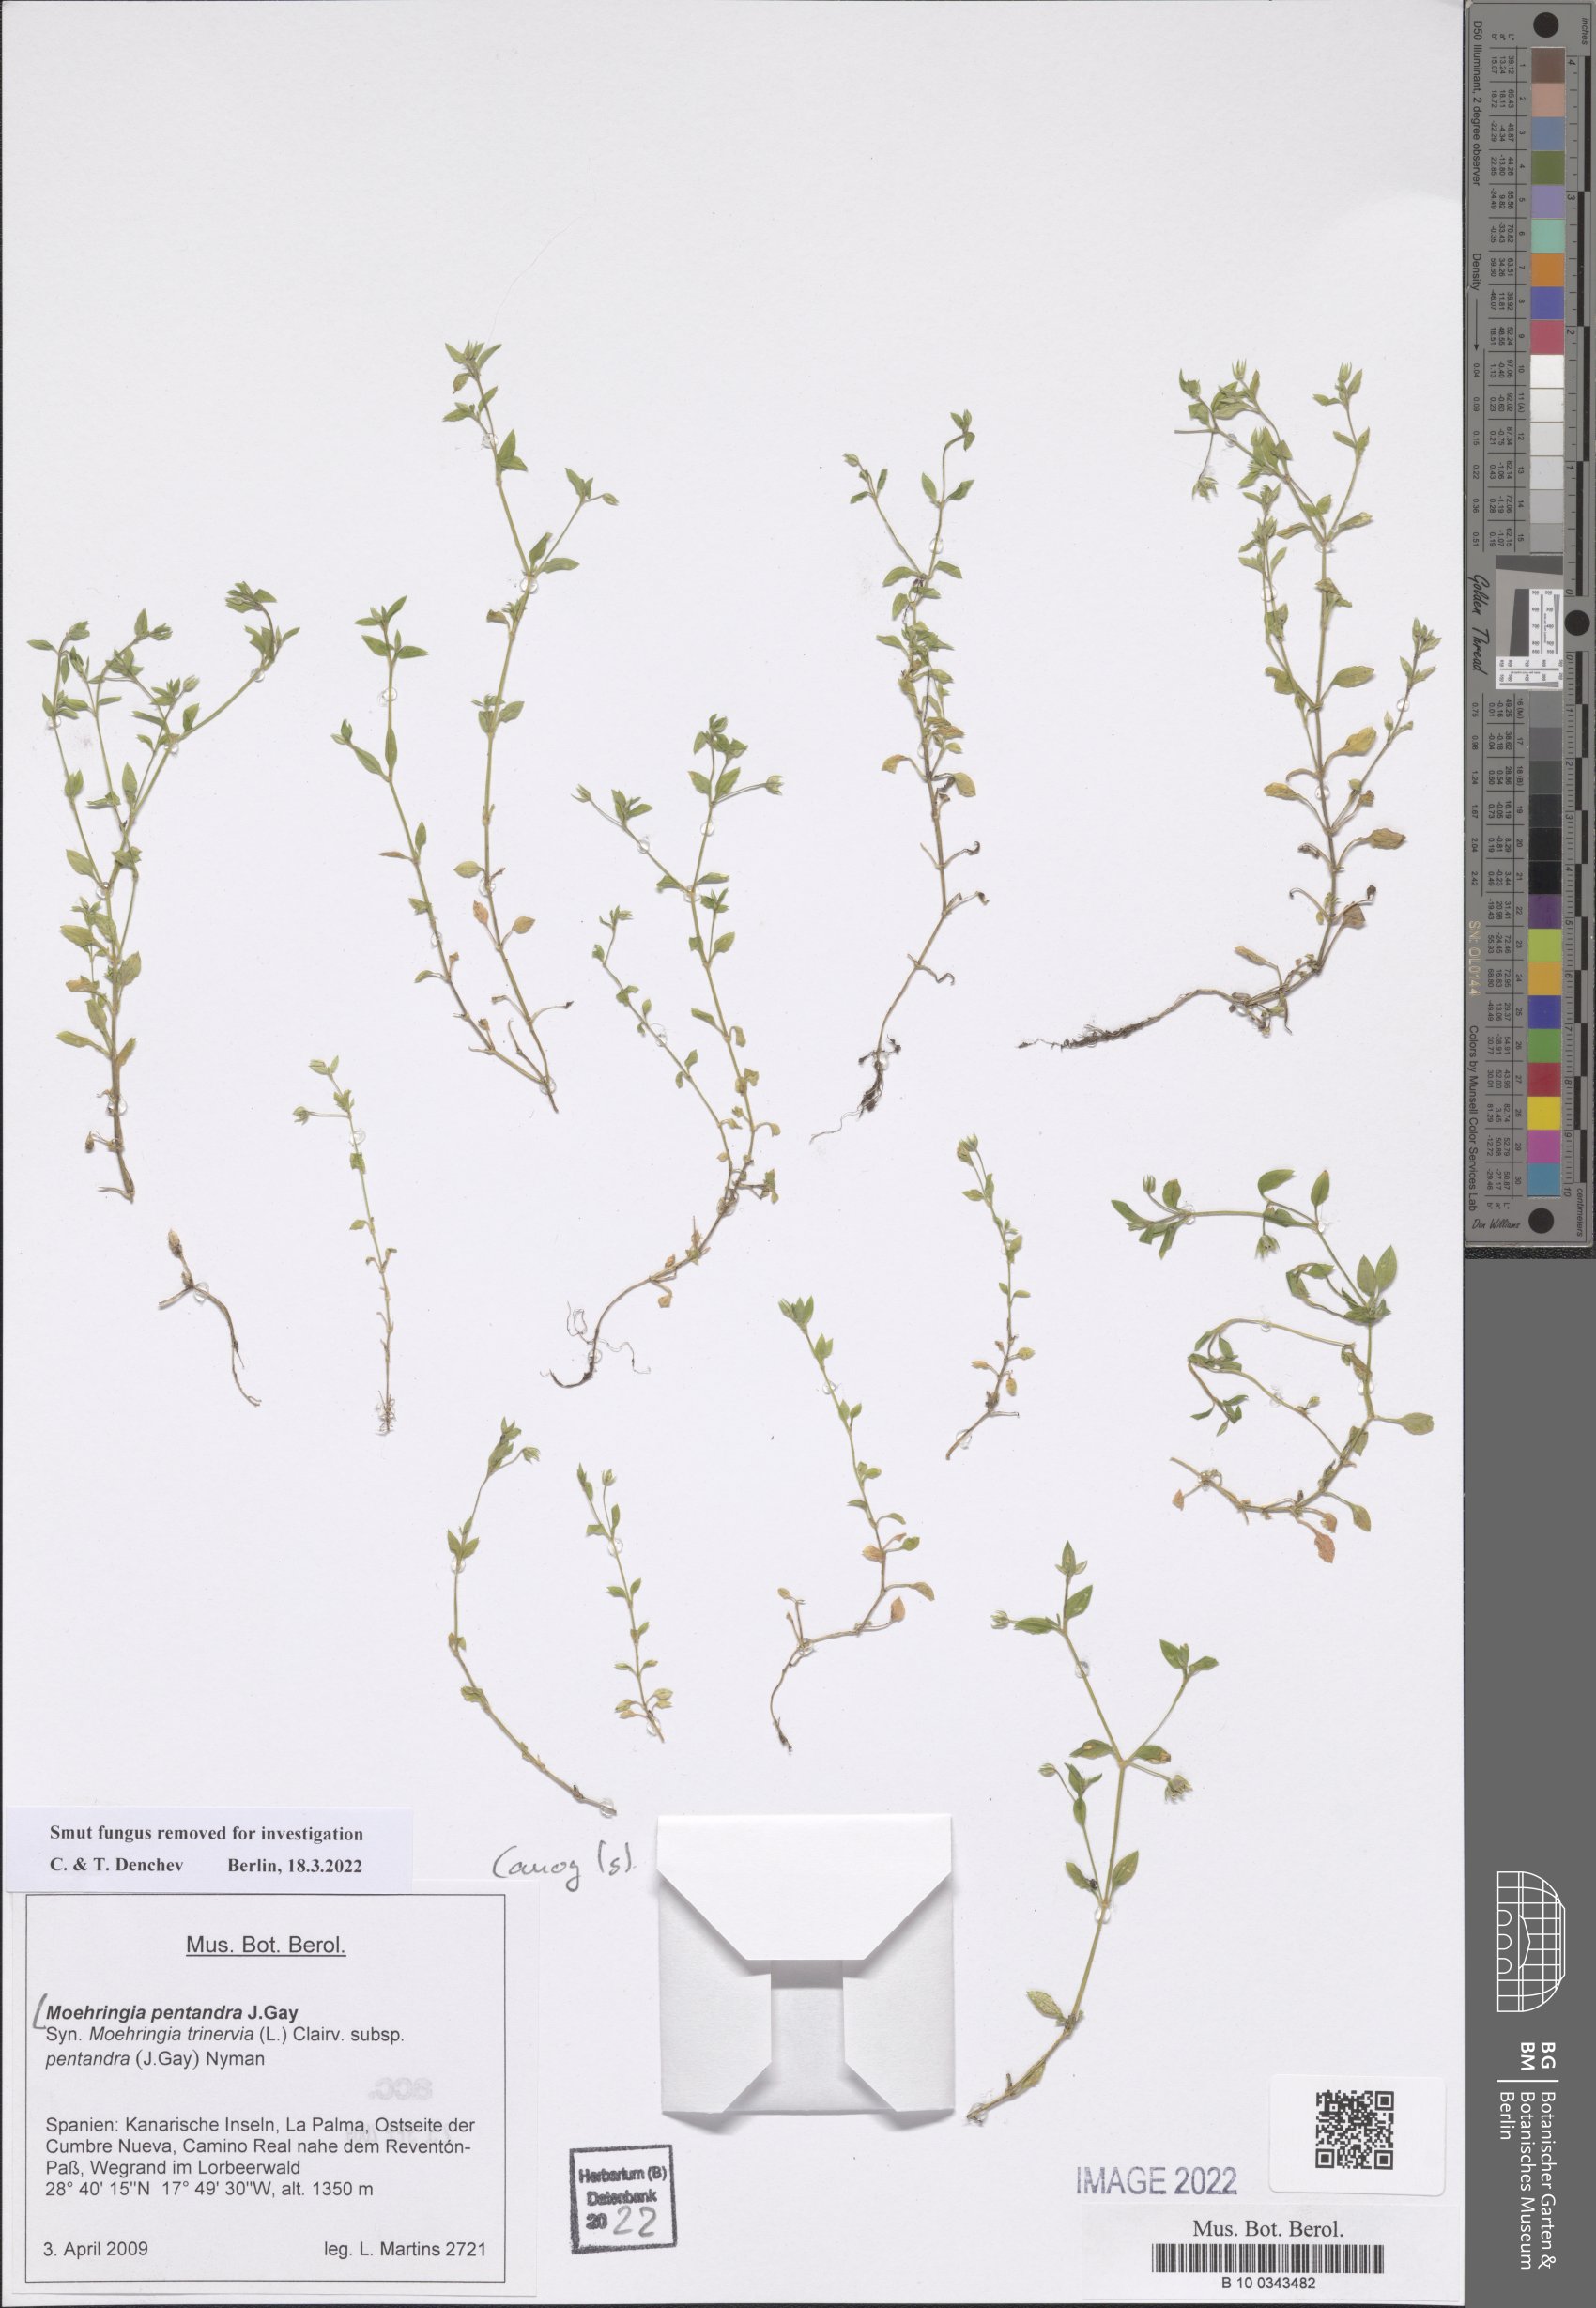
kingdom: Plantae
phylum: Tracheophyta
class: Magnoliopsida
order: Caryophyllales
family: Caryophyllaceae
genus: Moehringia
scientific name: Moehringia pentandra
